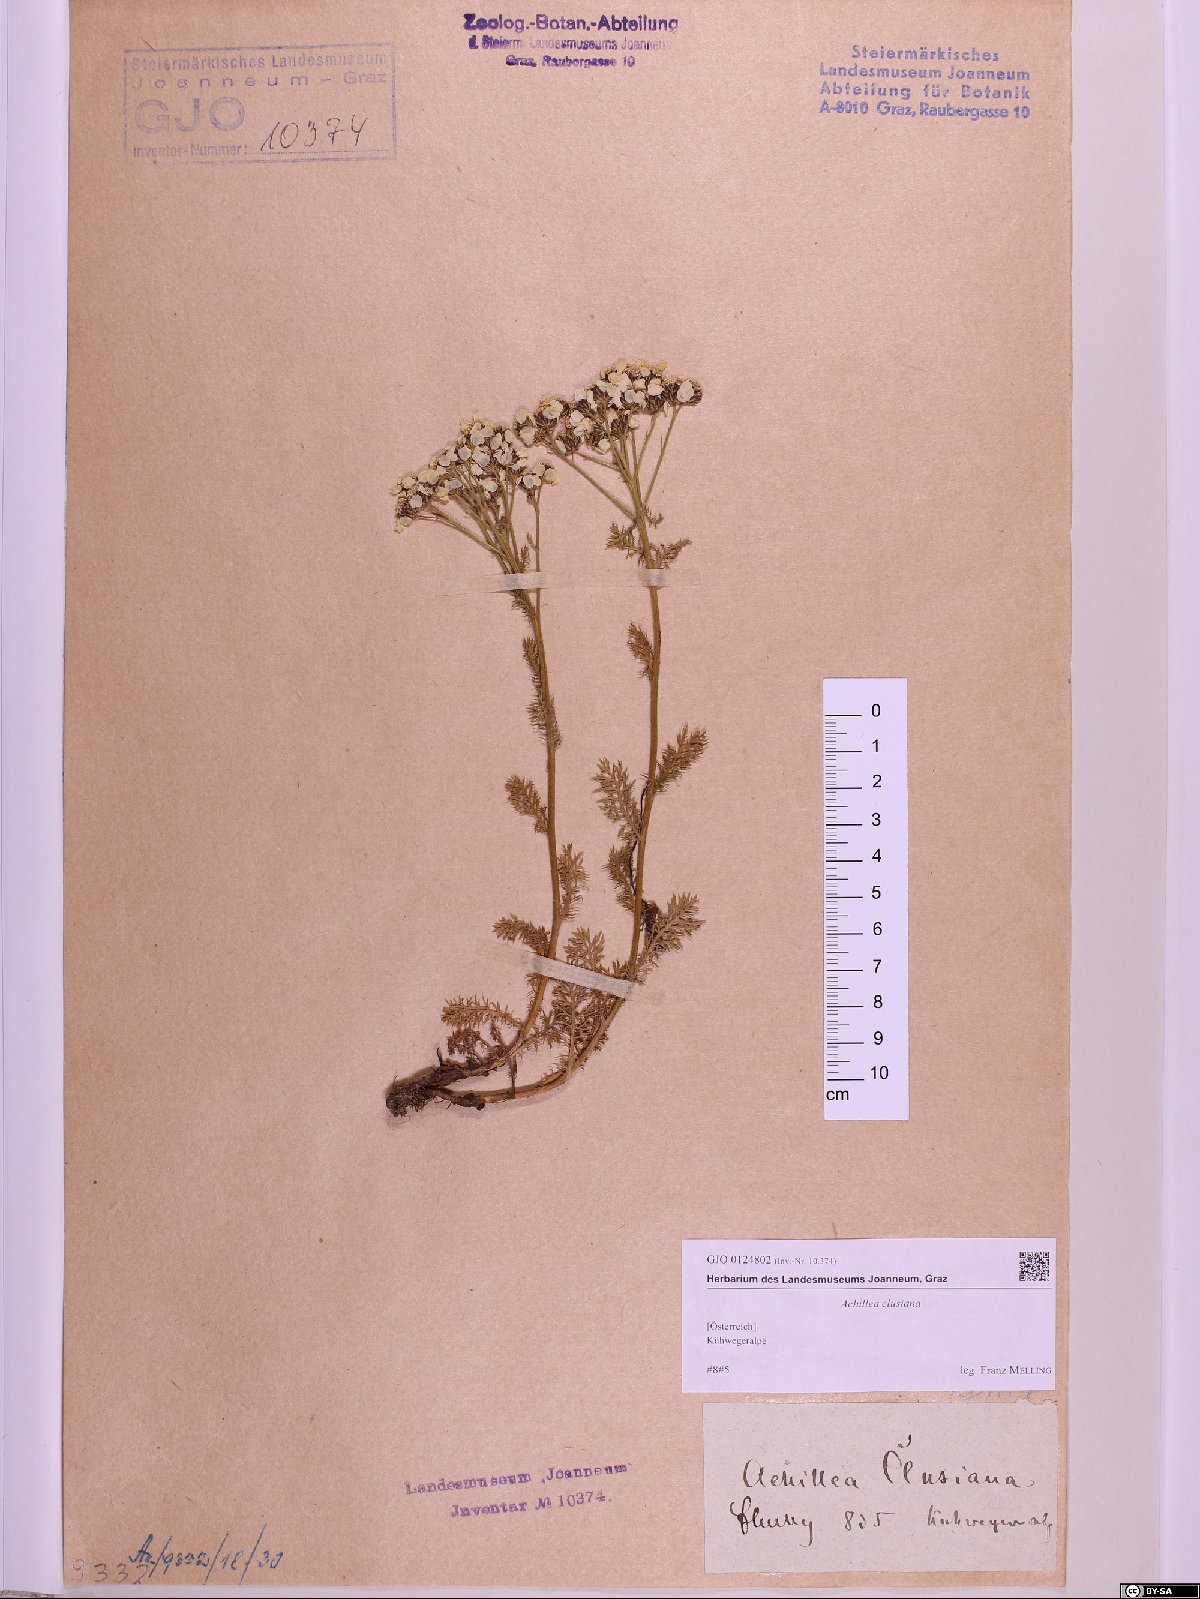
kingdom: Plantae
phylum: Tracheophyta
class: Magnoliopsida
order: Asterales
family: Asteraceae
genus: Achillea
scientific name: Achillea clusiana
